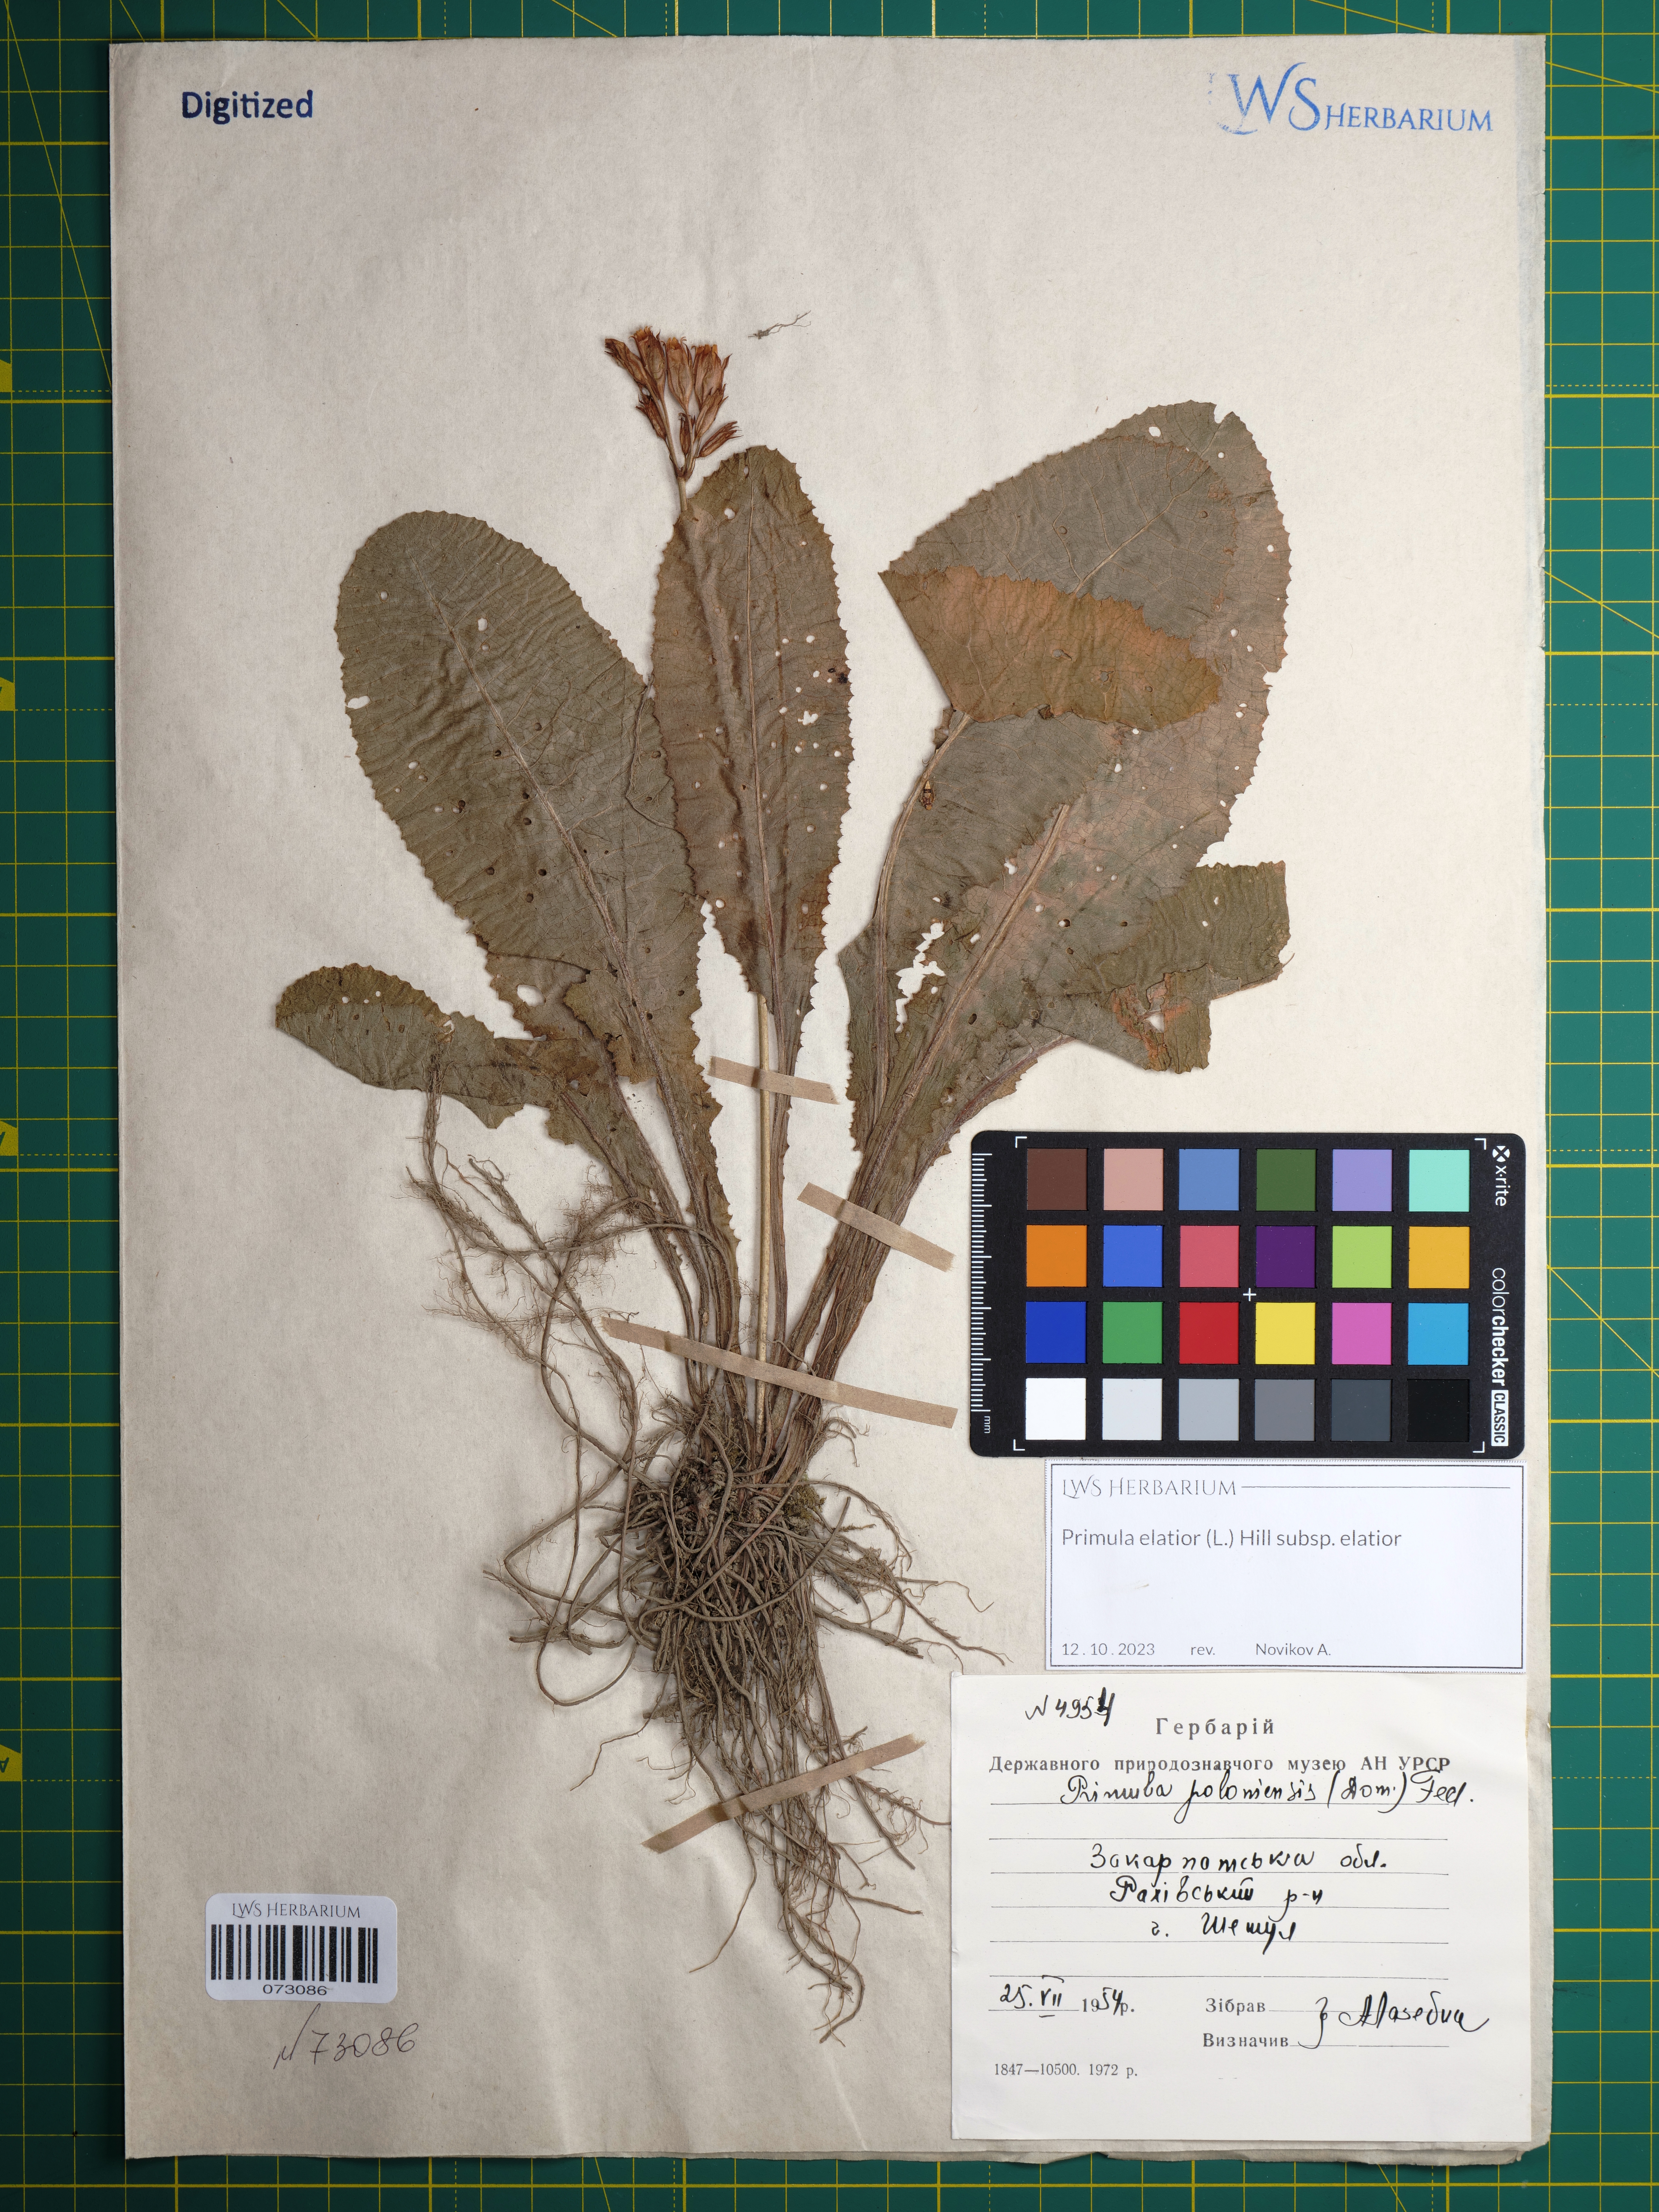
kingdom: Plantae
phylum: Tracheophyta
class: Magnoliopsida
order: Ericales
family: Primulaceae
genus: Primula
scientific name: Primula elatior
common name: Oxlip
